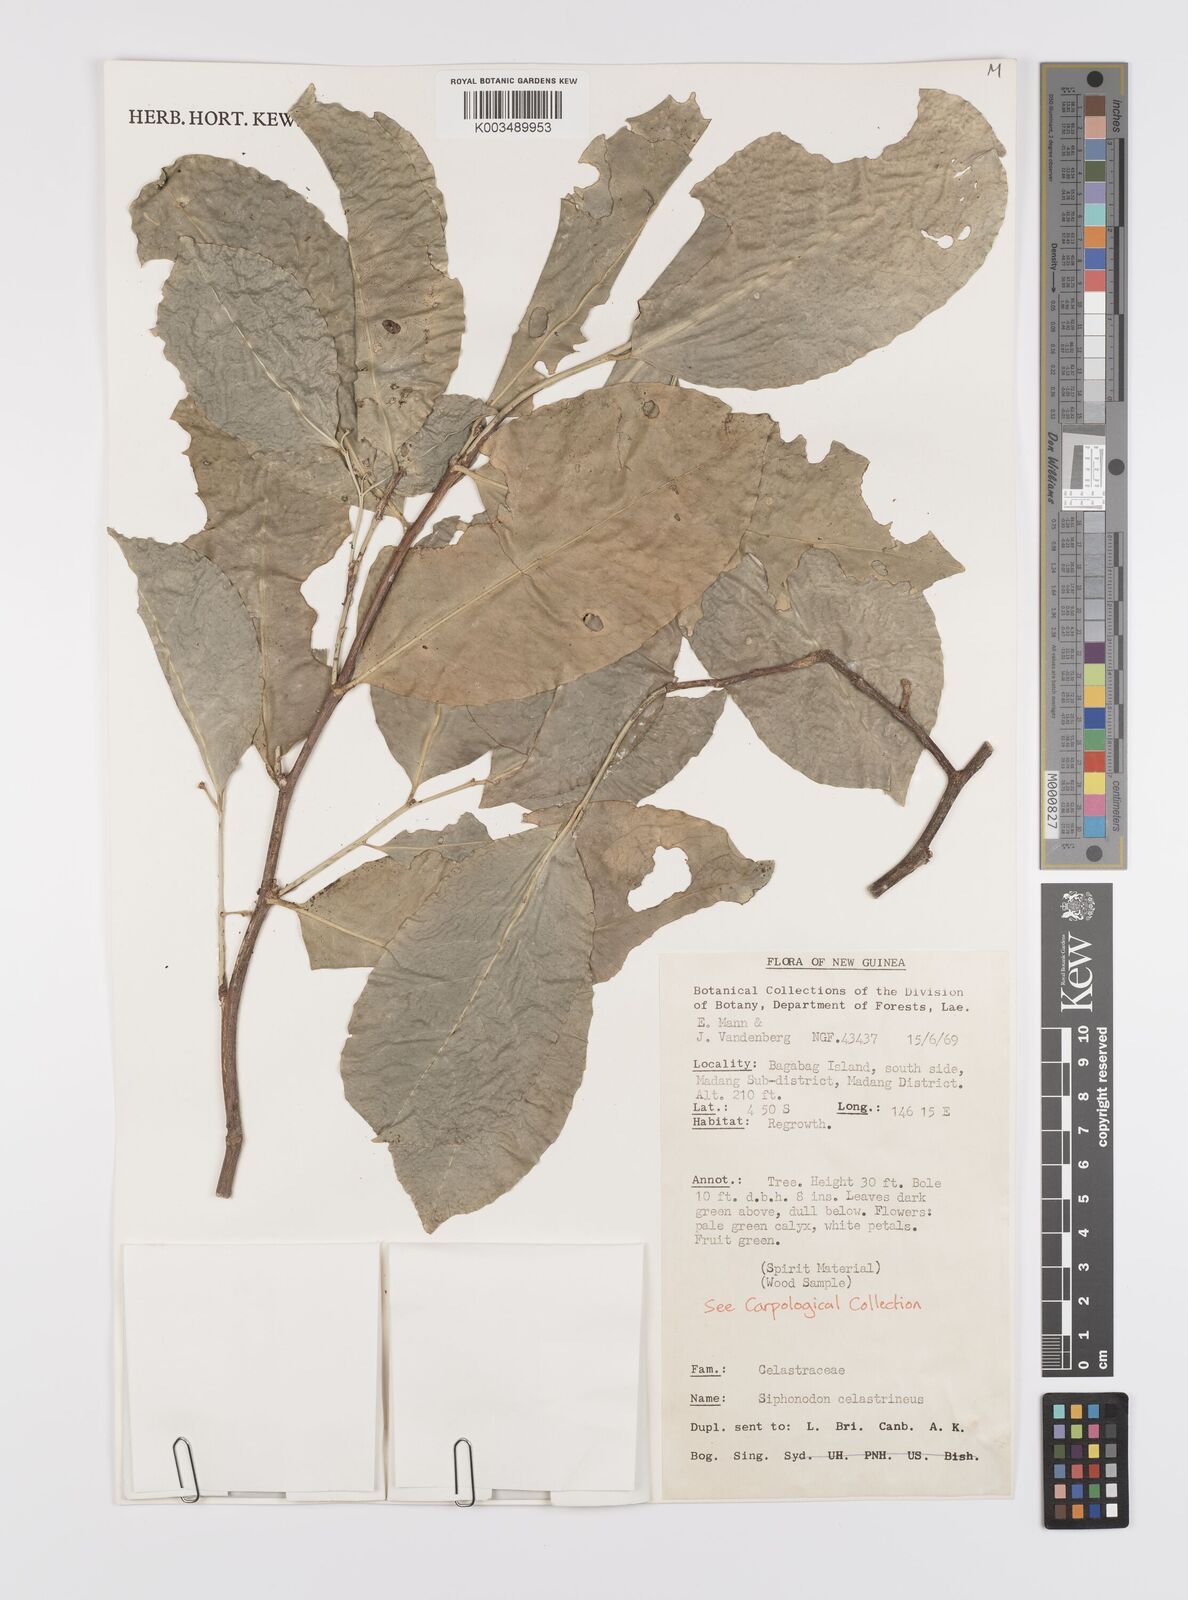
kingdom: Plantae
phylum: Tracheophyta
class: Magnoliopsida
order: Celastrales
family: Celastraceae
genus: Siphonodon
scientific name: Siphonodon celastrineus
